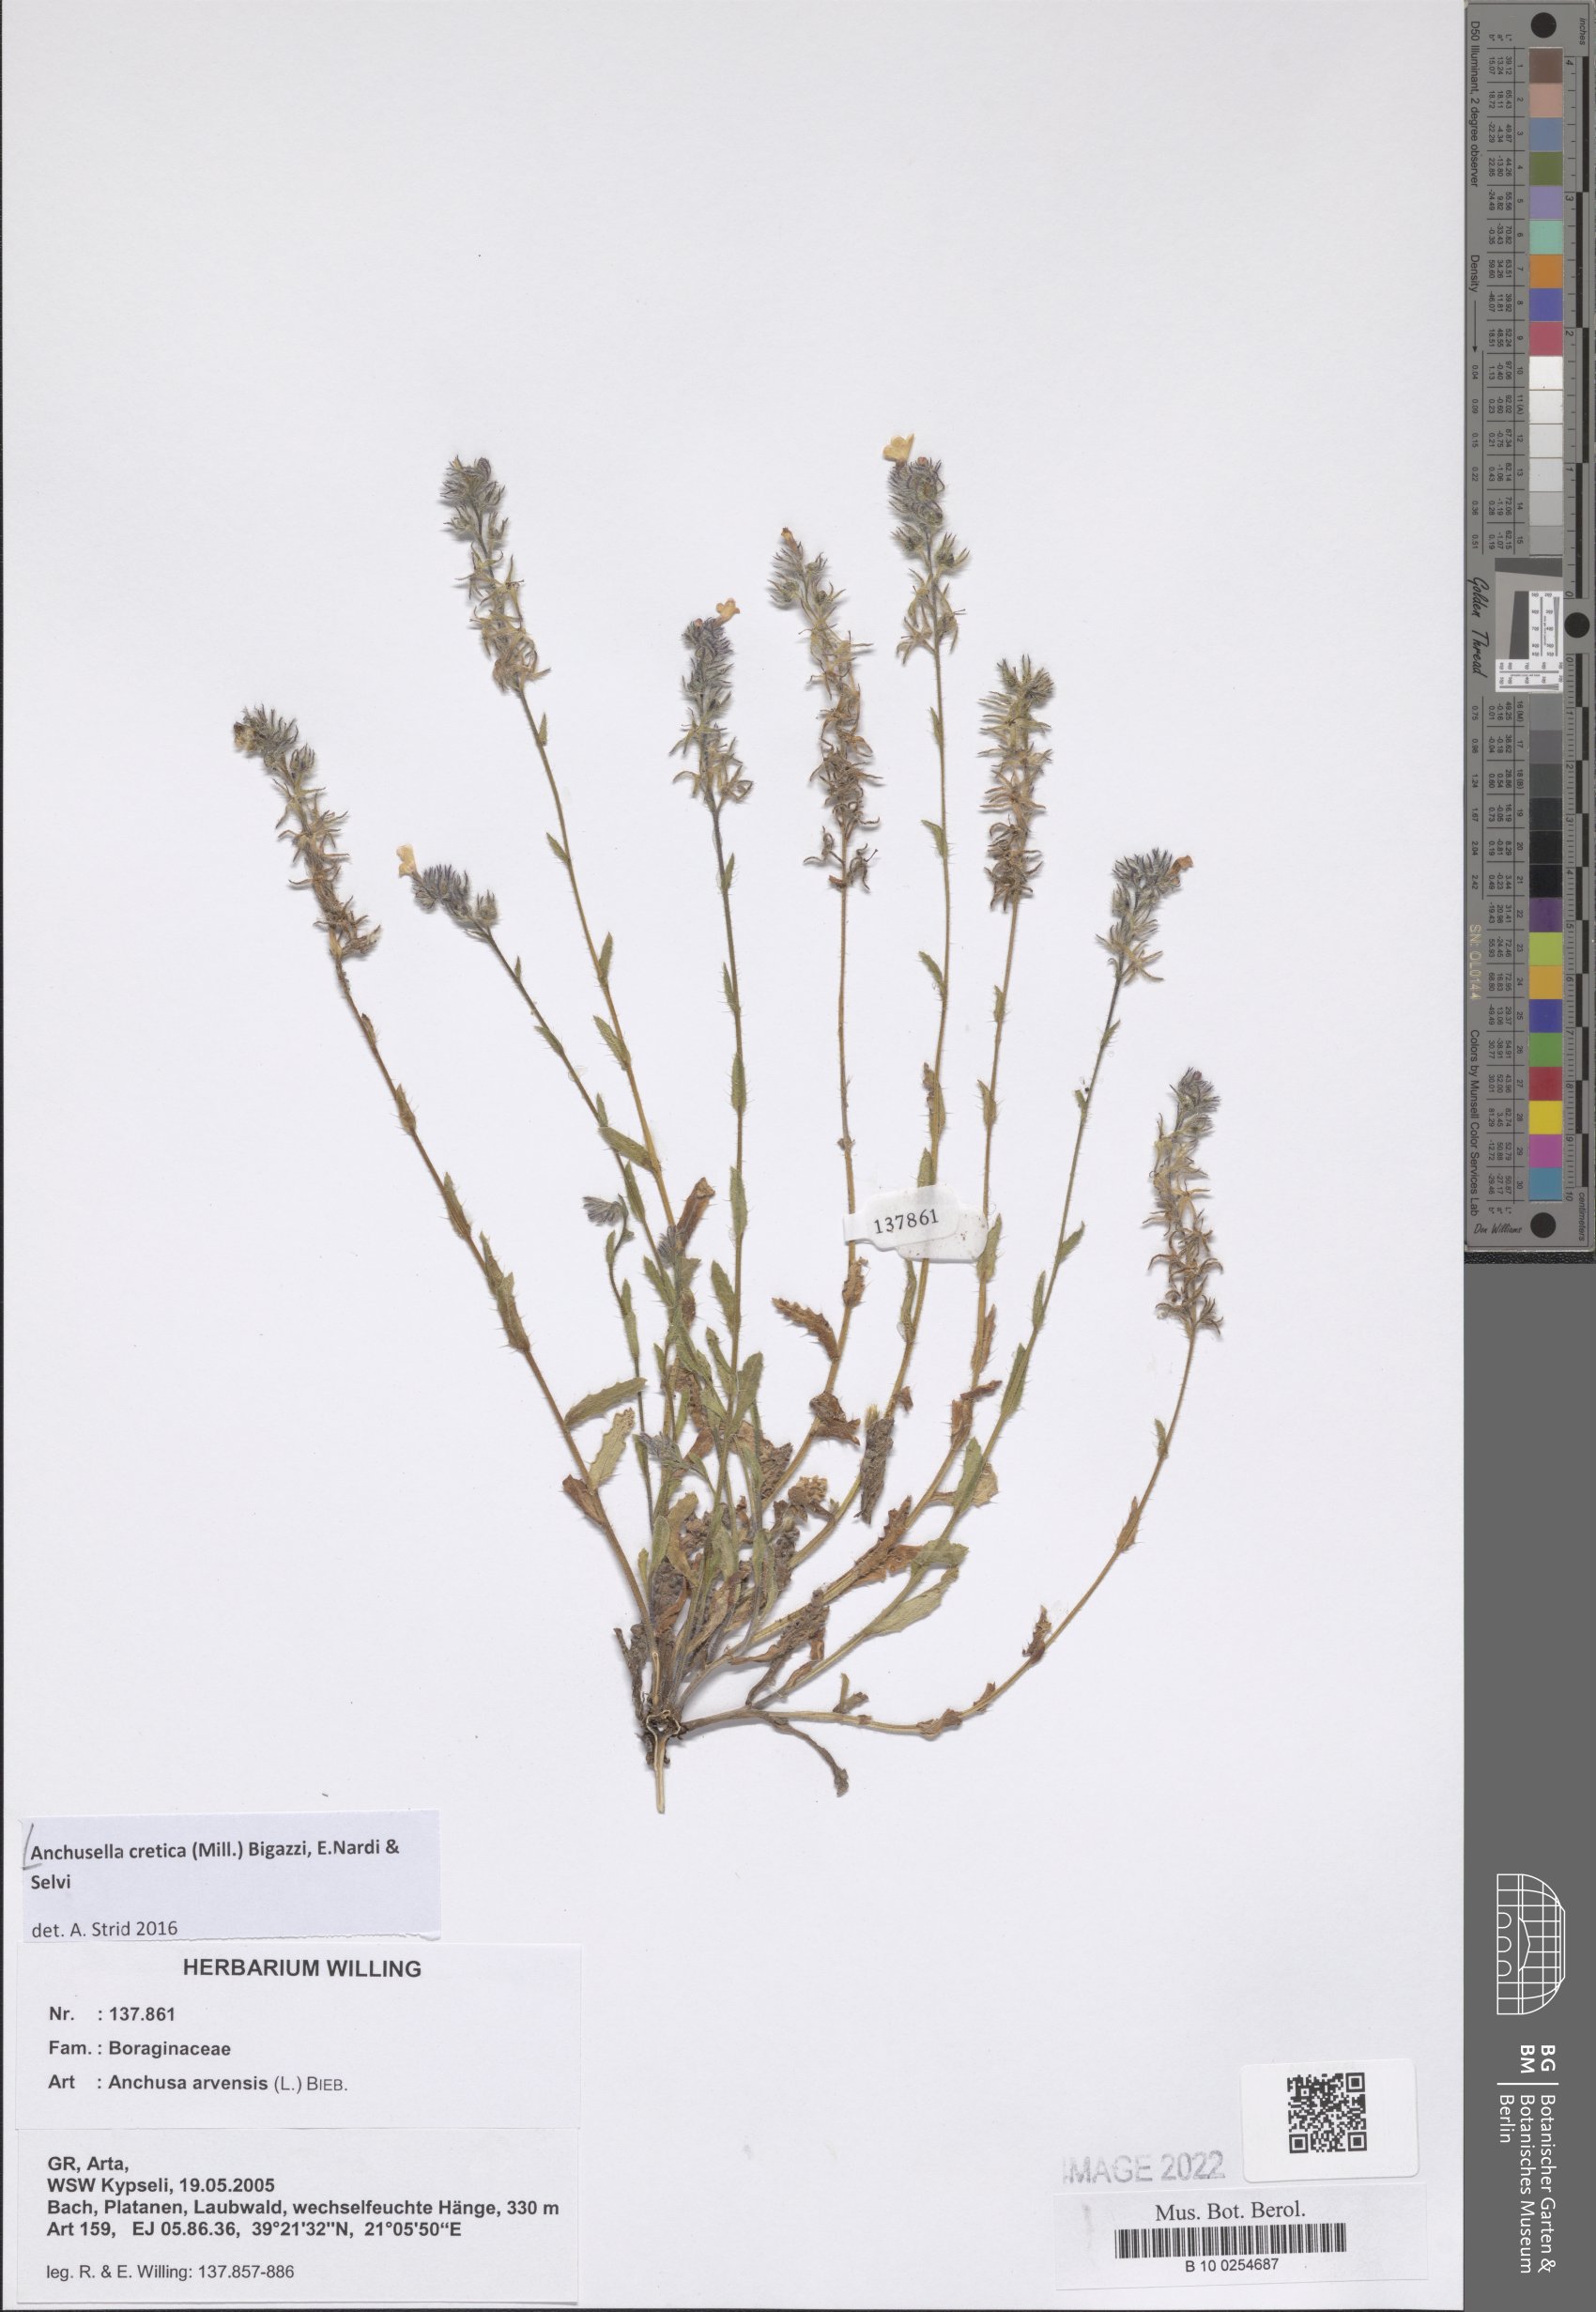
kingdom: Plantae
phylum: Tracheophyta
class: Magnoliopsida
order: Boraginales
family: Boraginaceae
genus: Anchusella
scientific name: Anchusella cretica
